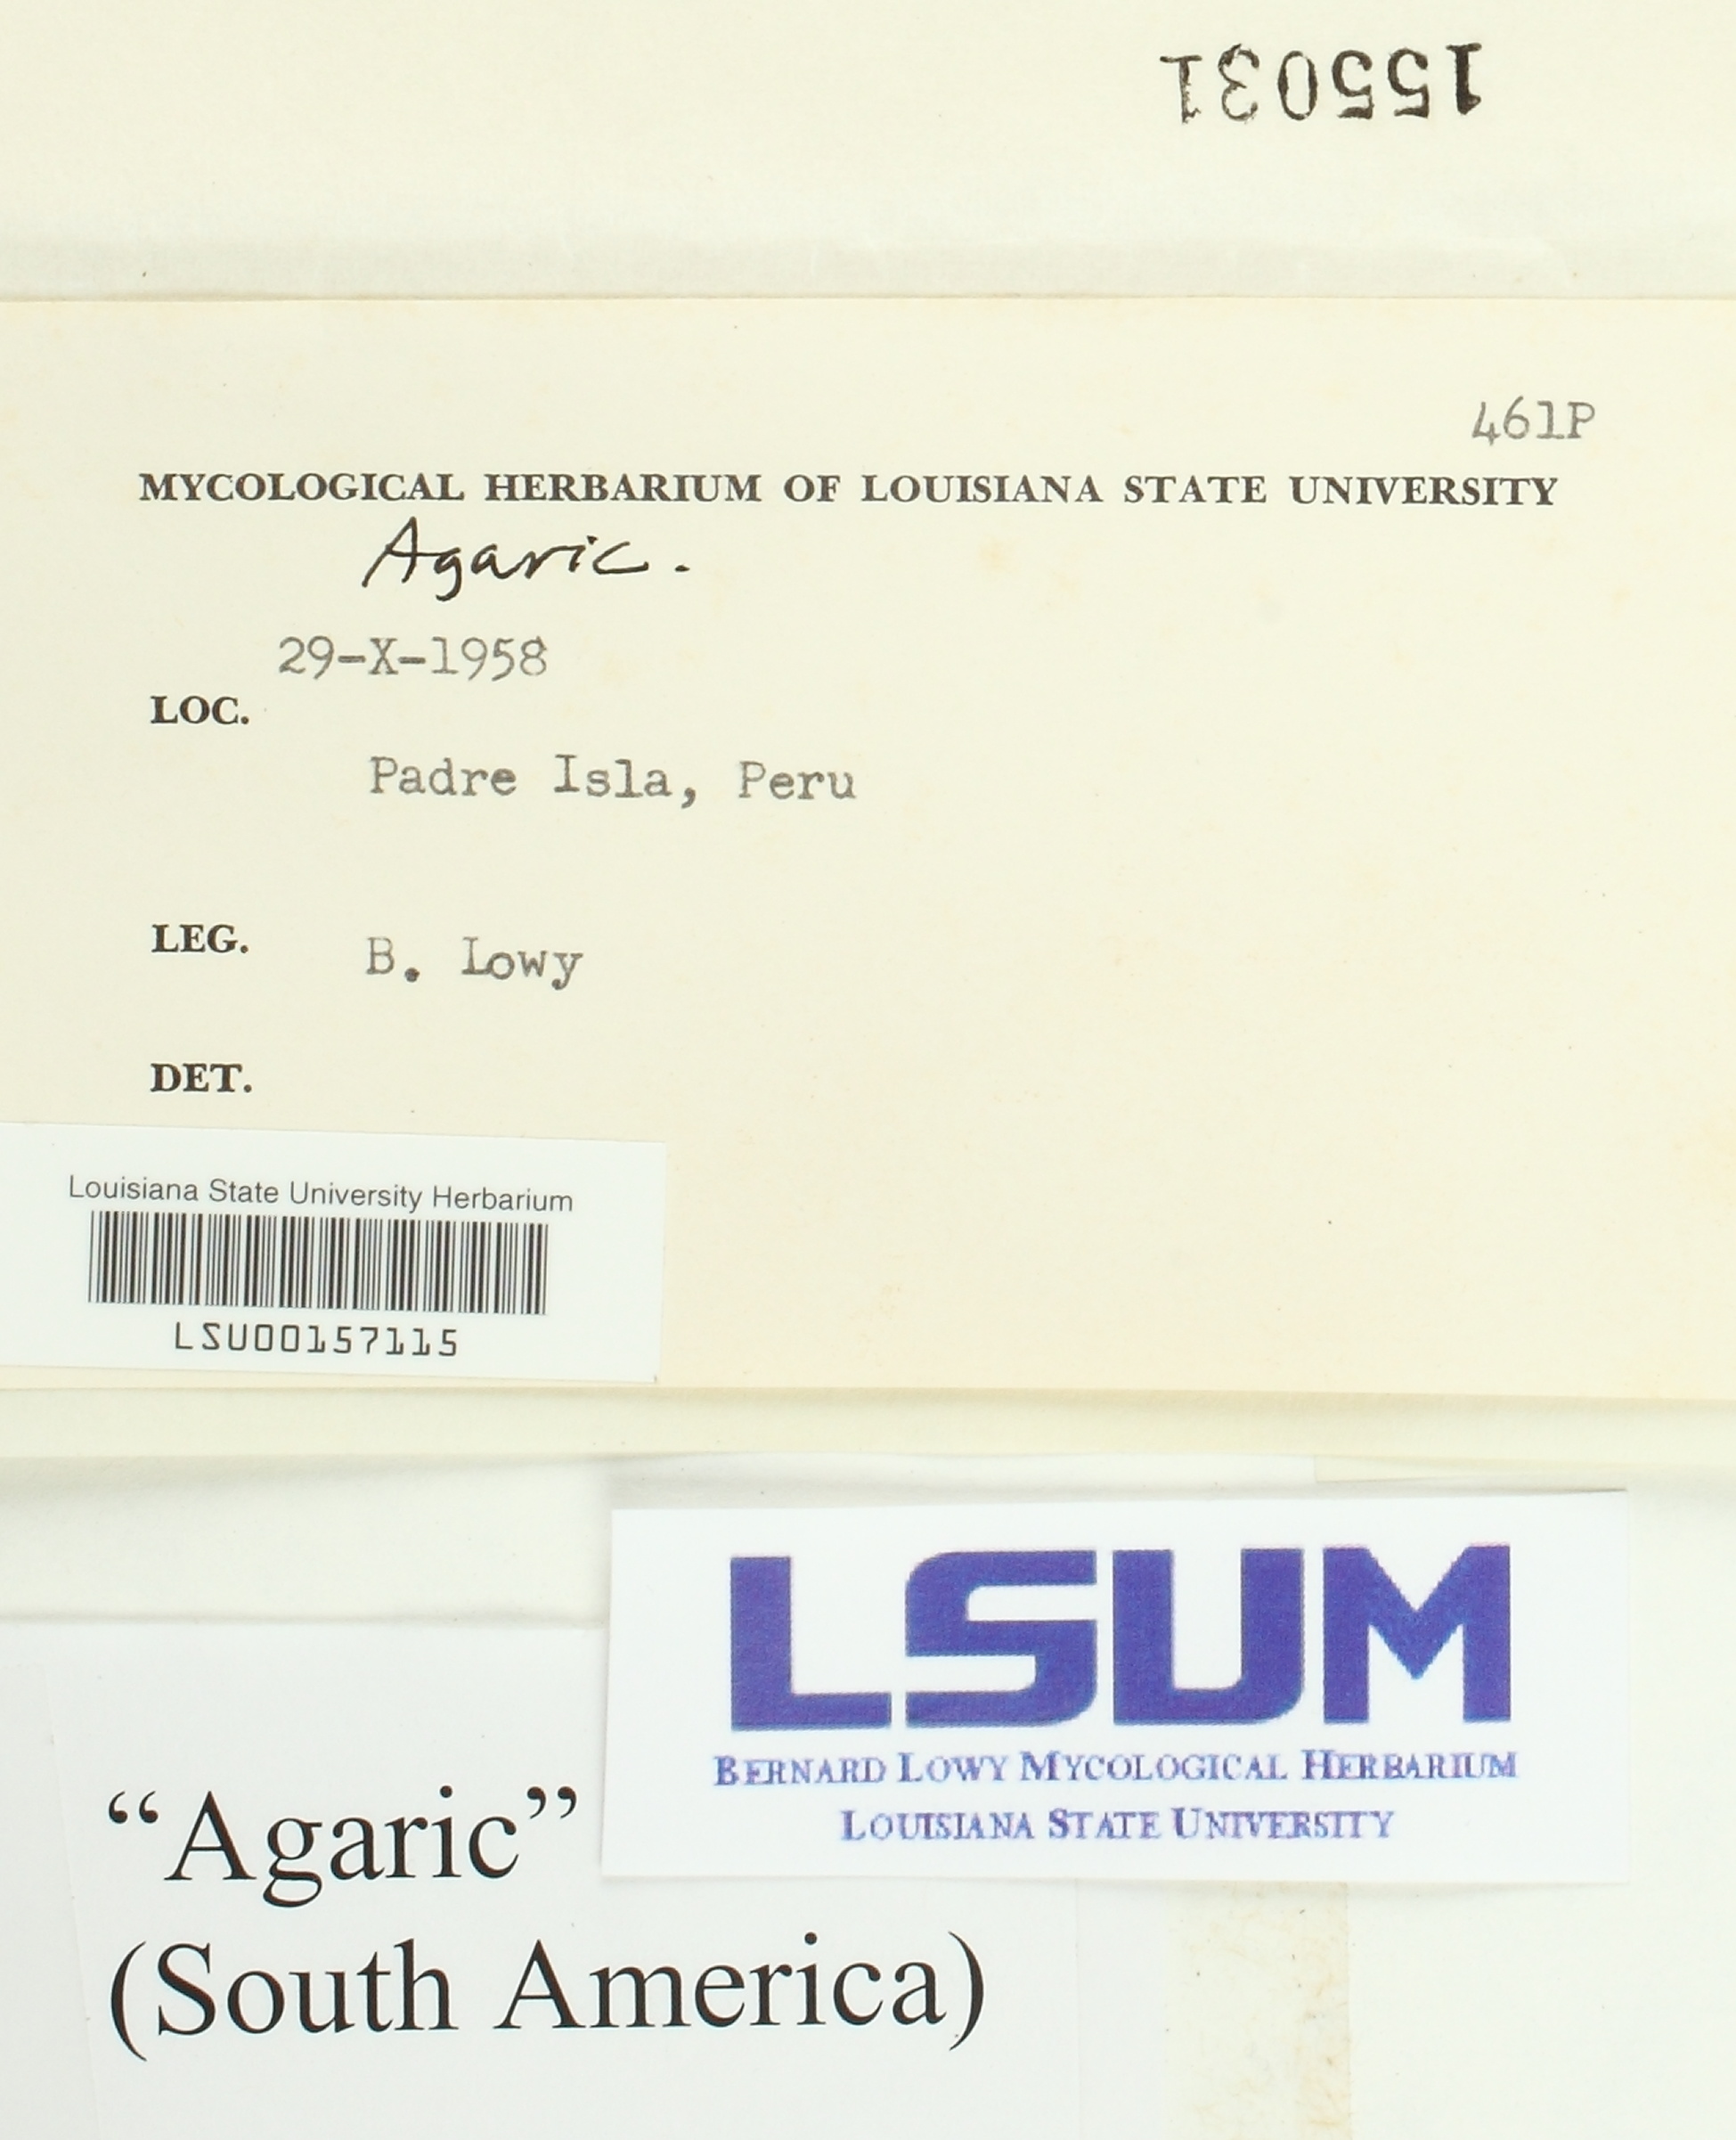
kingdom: Fungi
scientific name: Fungi
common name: Fungi
